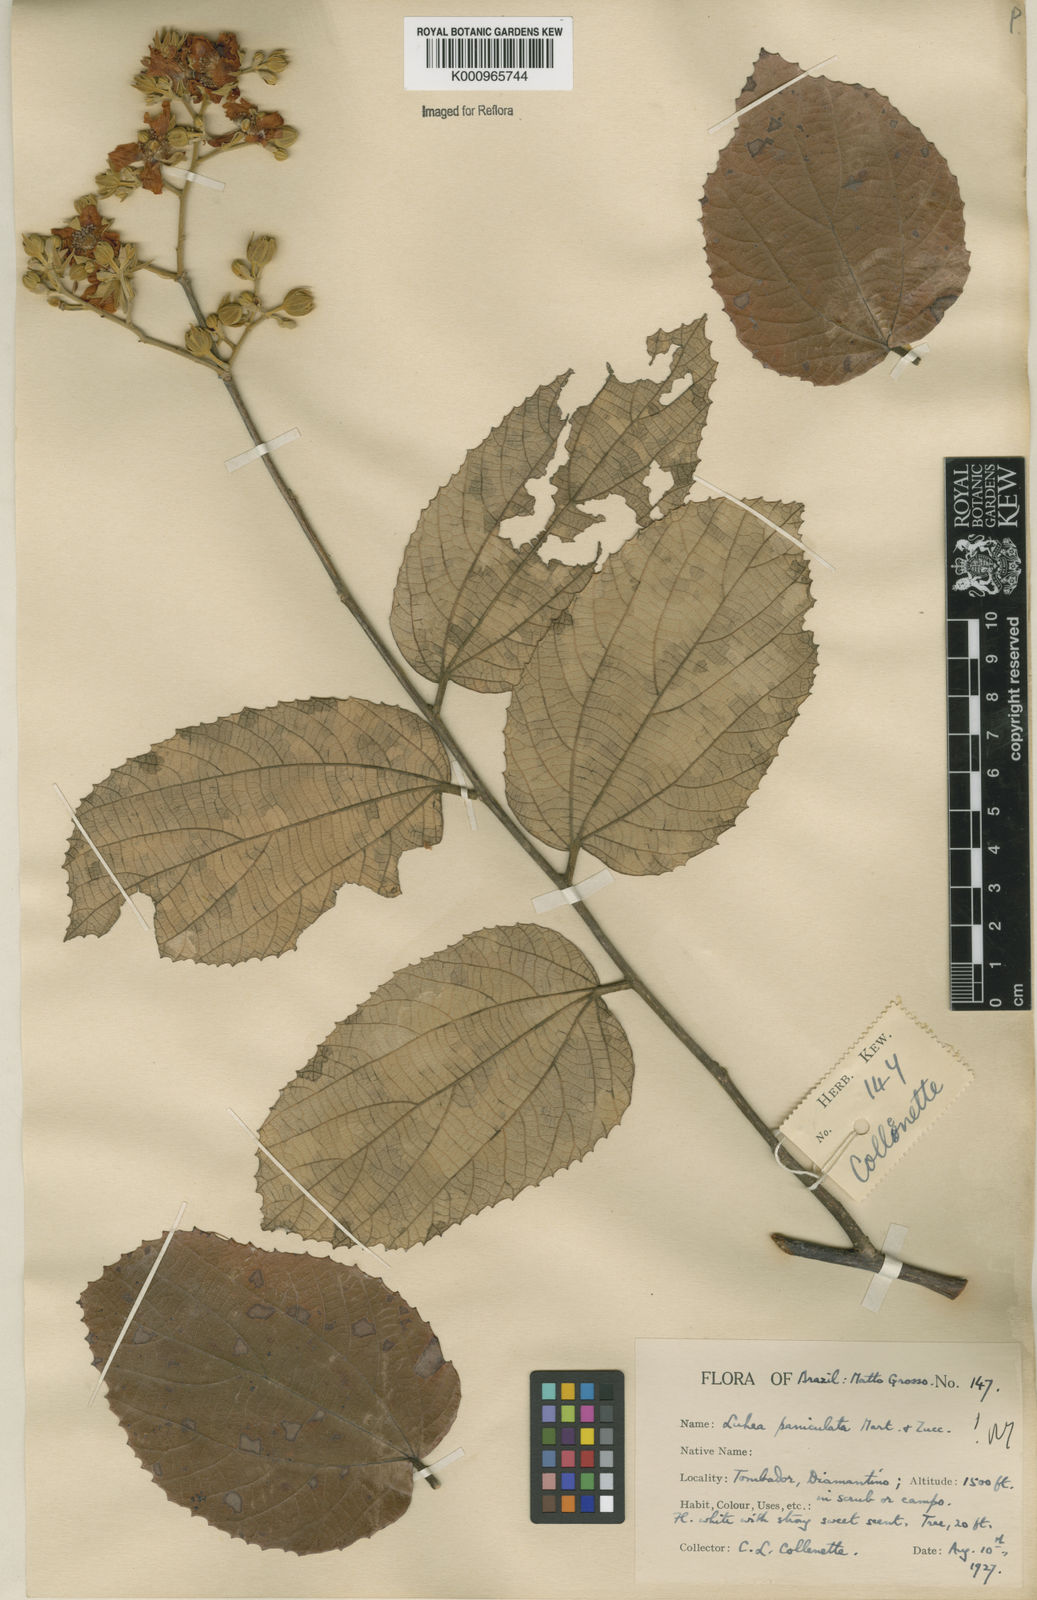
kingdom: Plantae
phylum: Tracheophyta
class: Magnoliopsida
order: Malvales
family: Malvaceae
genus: Luehea
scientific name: Luehea paniculata
